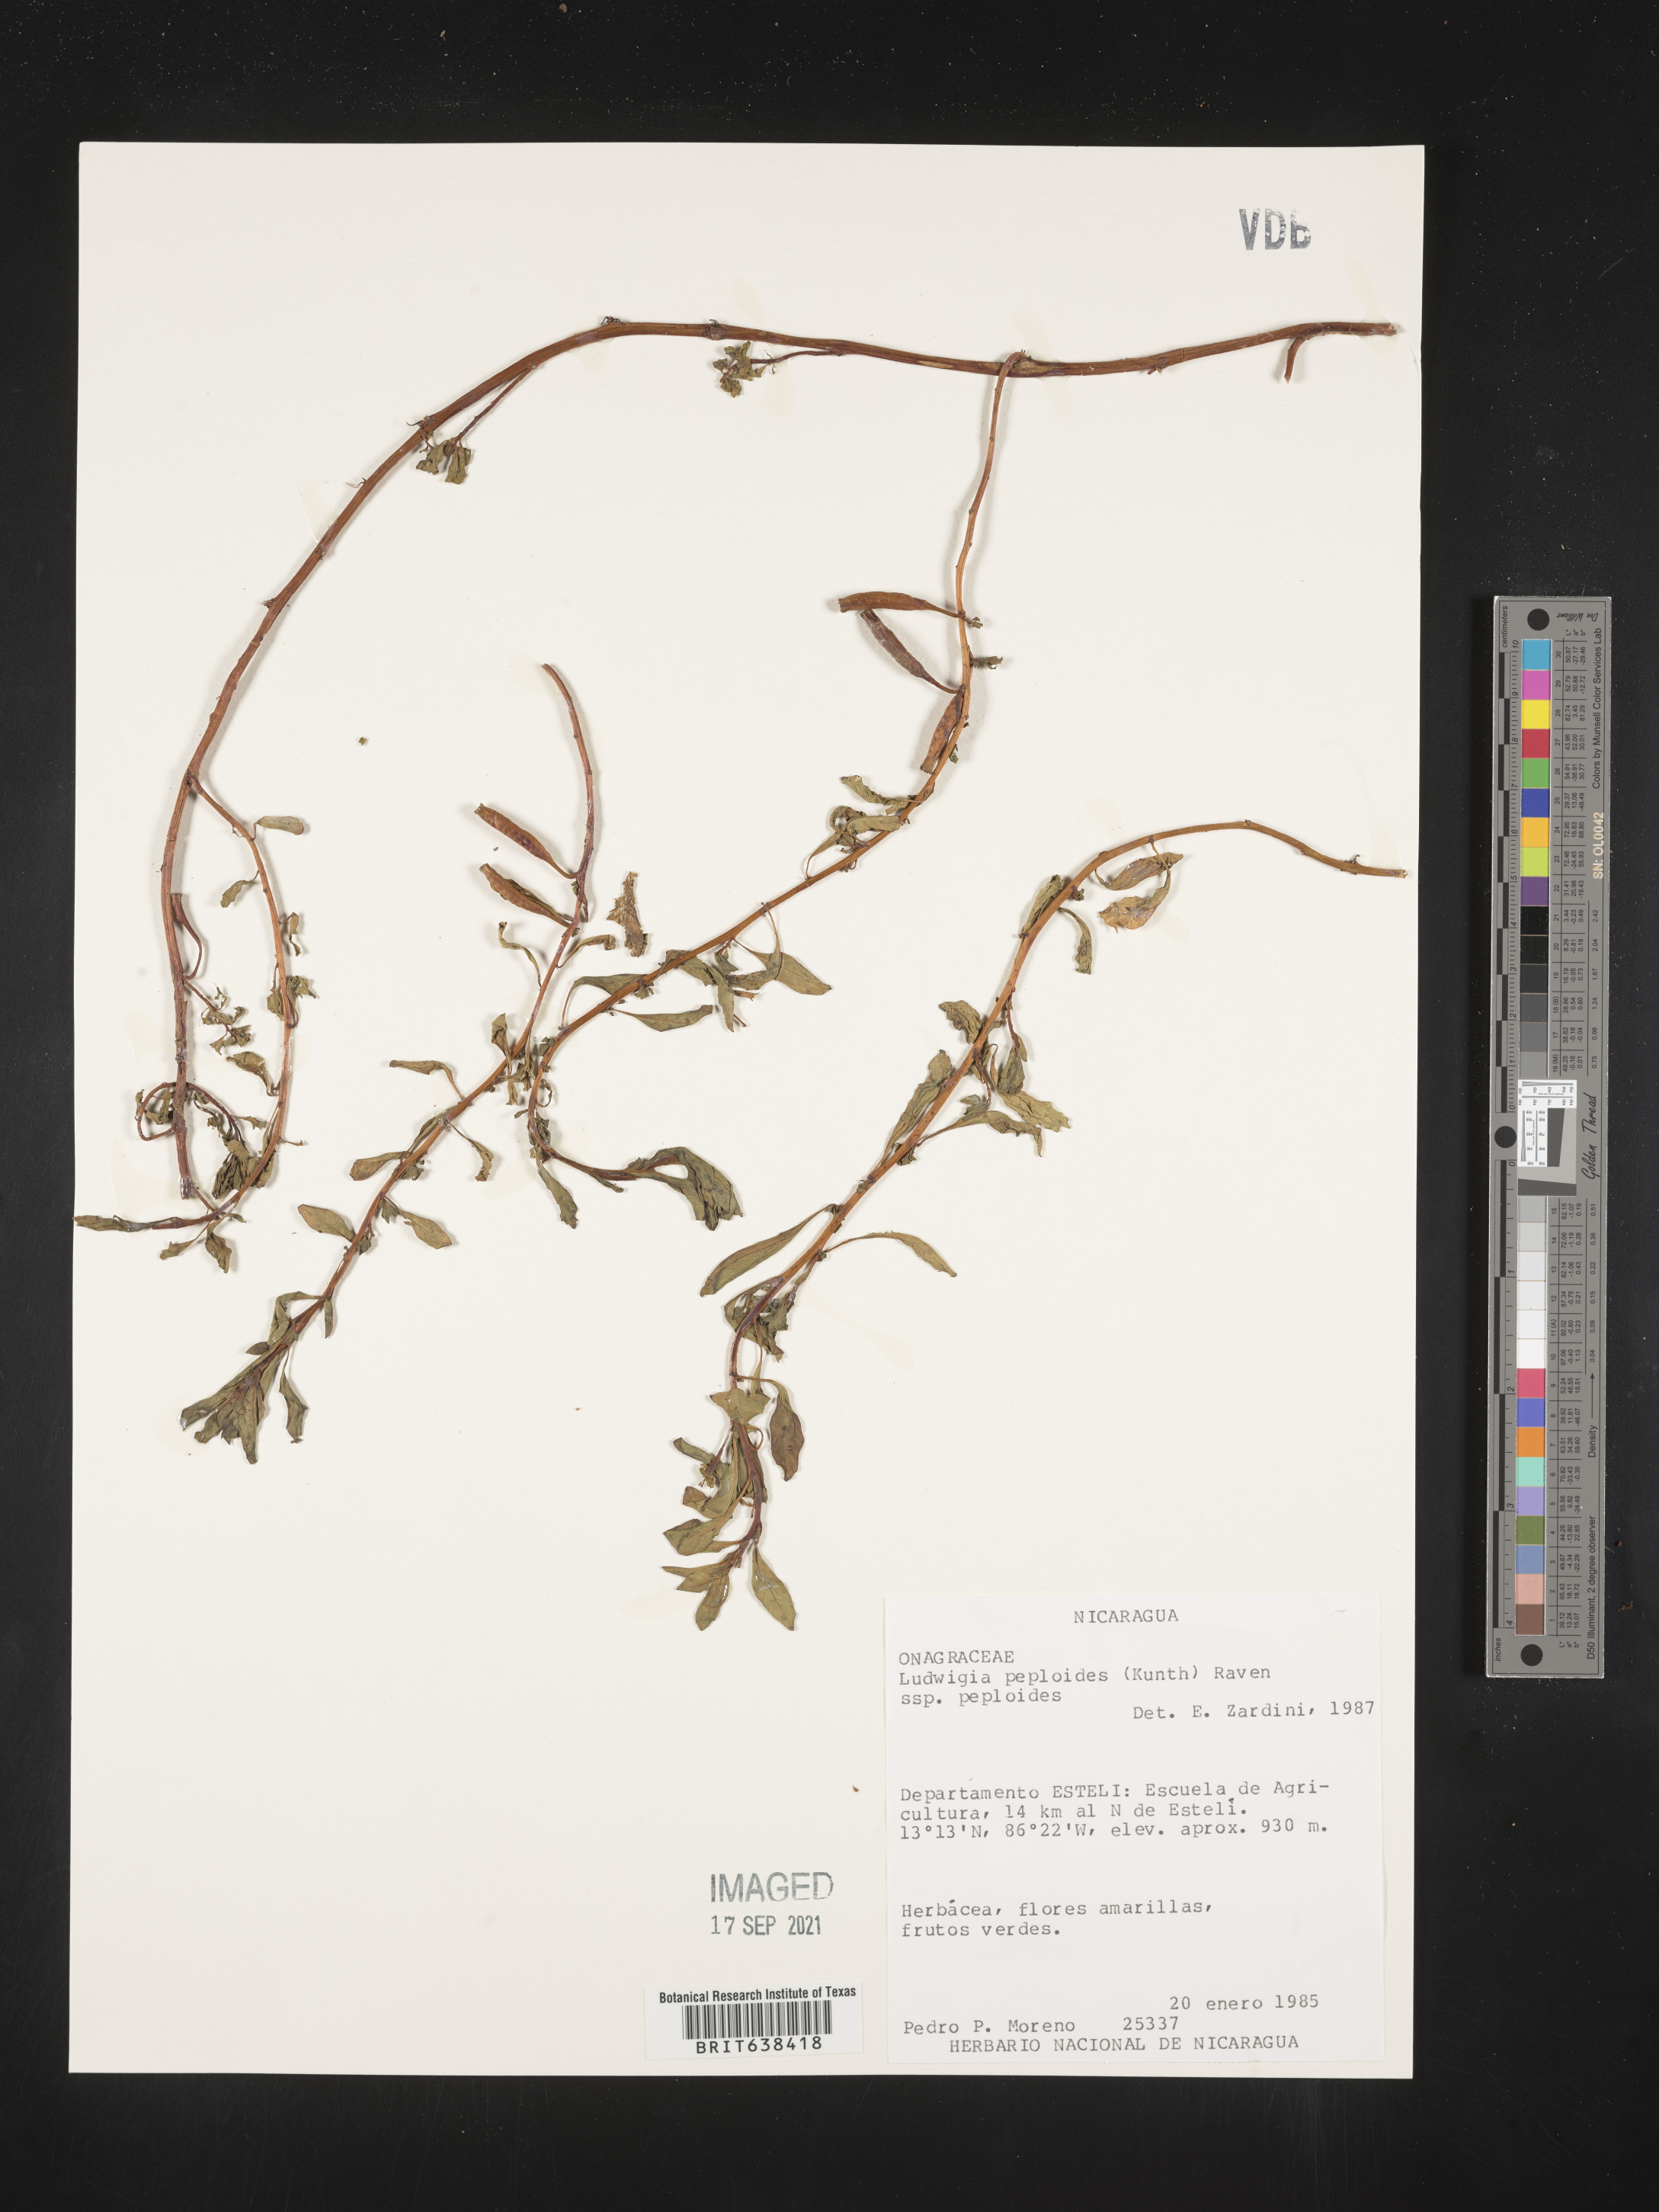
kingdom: Plantae
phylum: Tracheophyta
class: Magnoliopsida
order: Myrtales
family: Onagraceae
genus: Ludwigia
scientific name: Ludwigia
